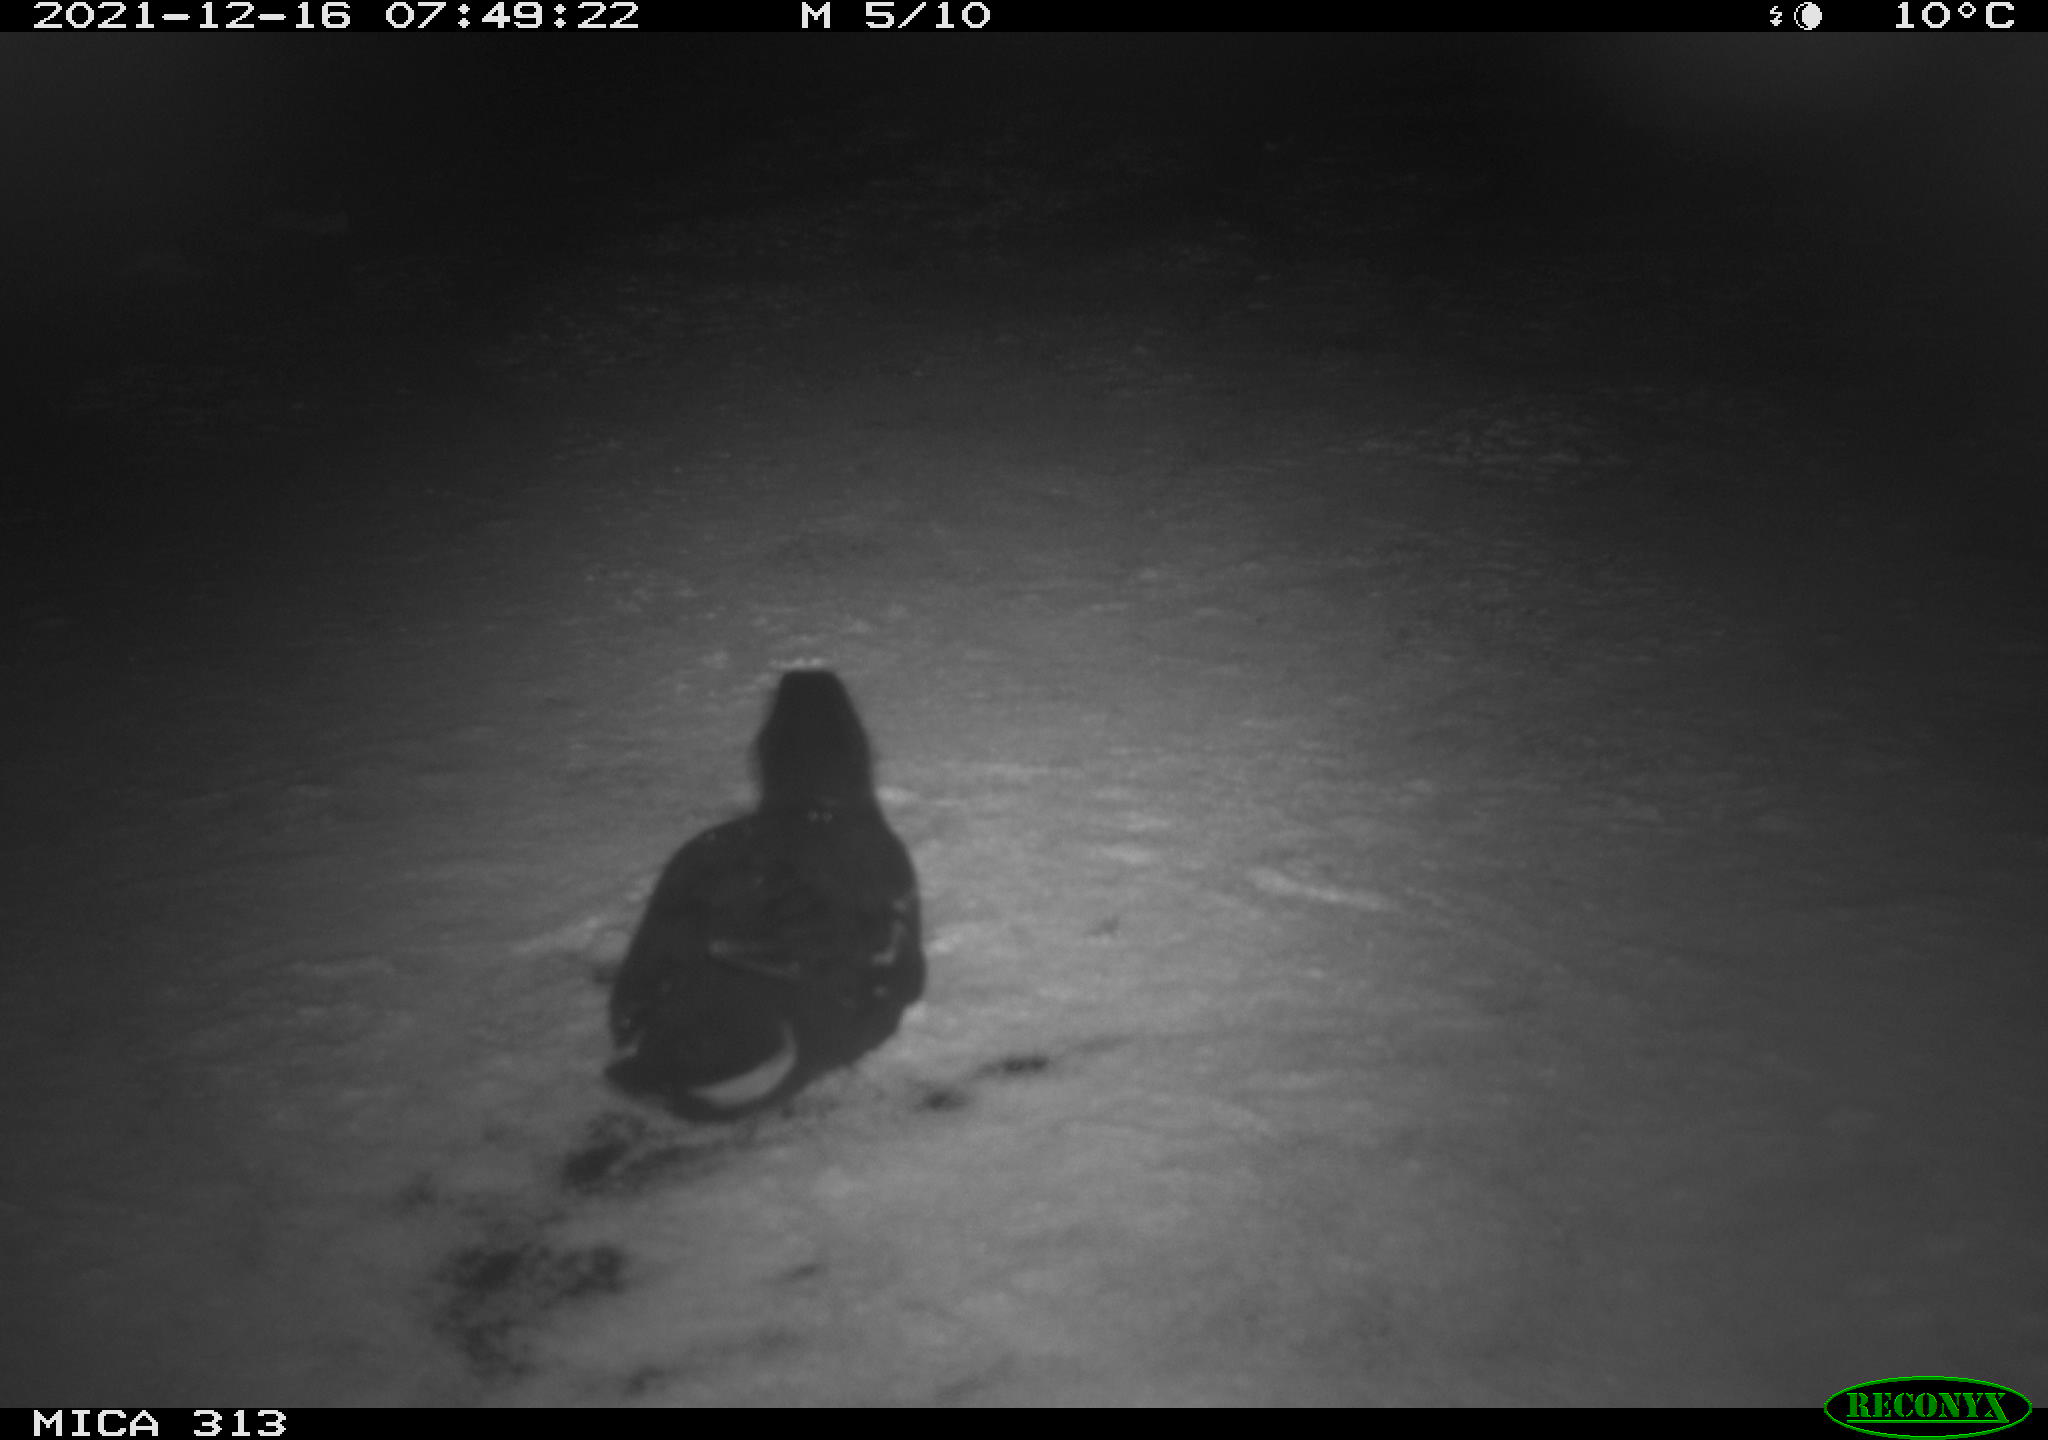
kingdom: Animalia
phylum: Chordata
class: Aves
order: Gruiformes
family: Rallidae
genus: Gallinula
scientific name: Gallinula chloropus
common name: Common moorhen
